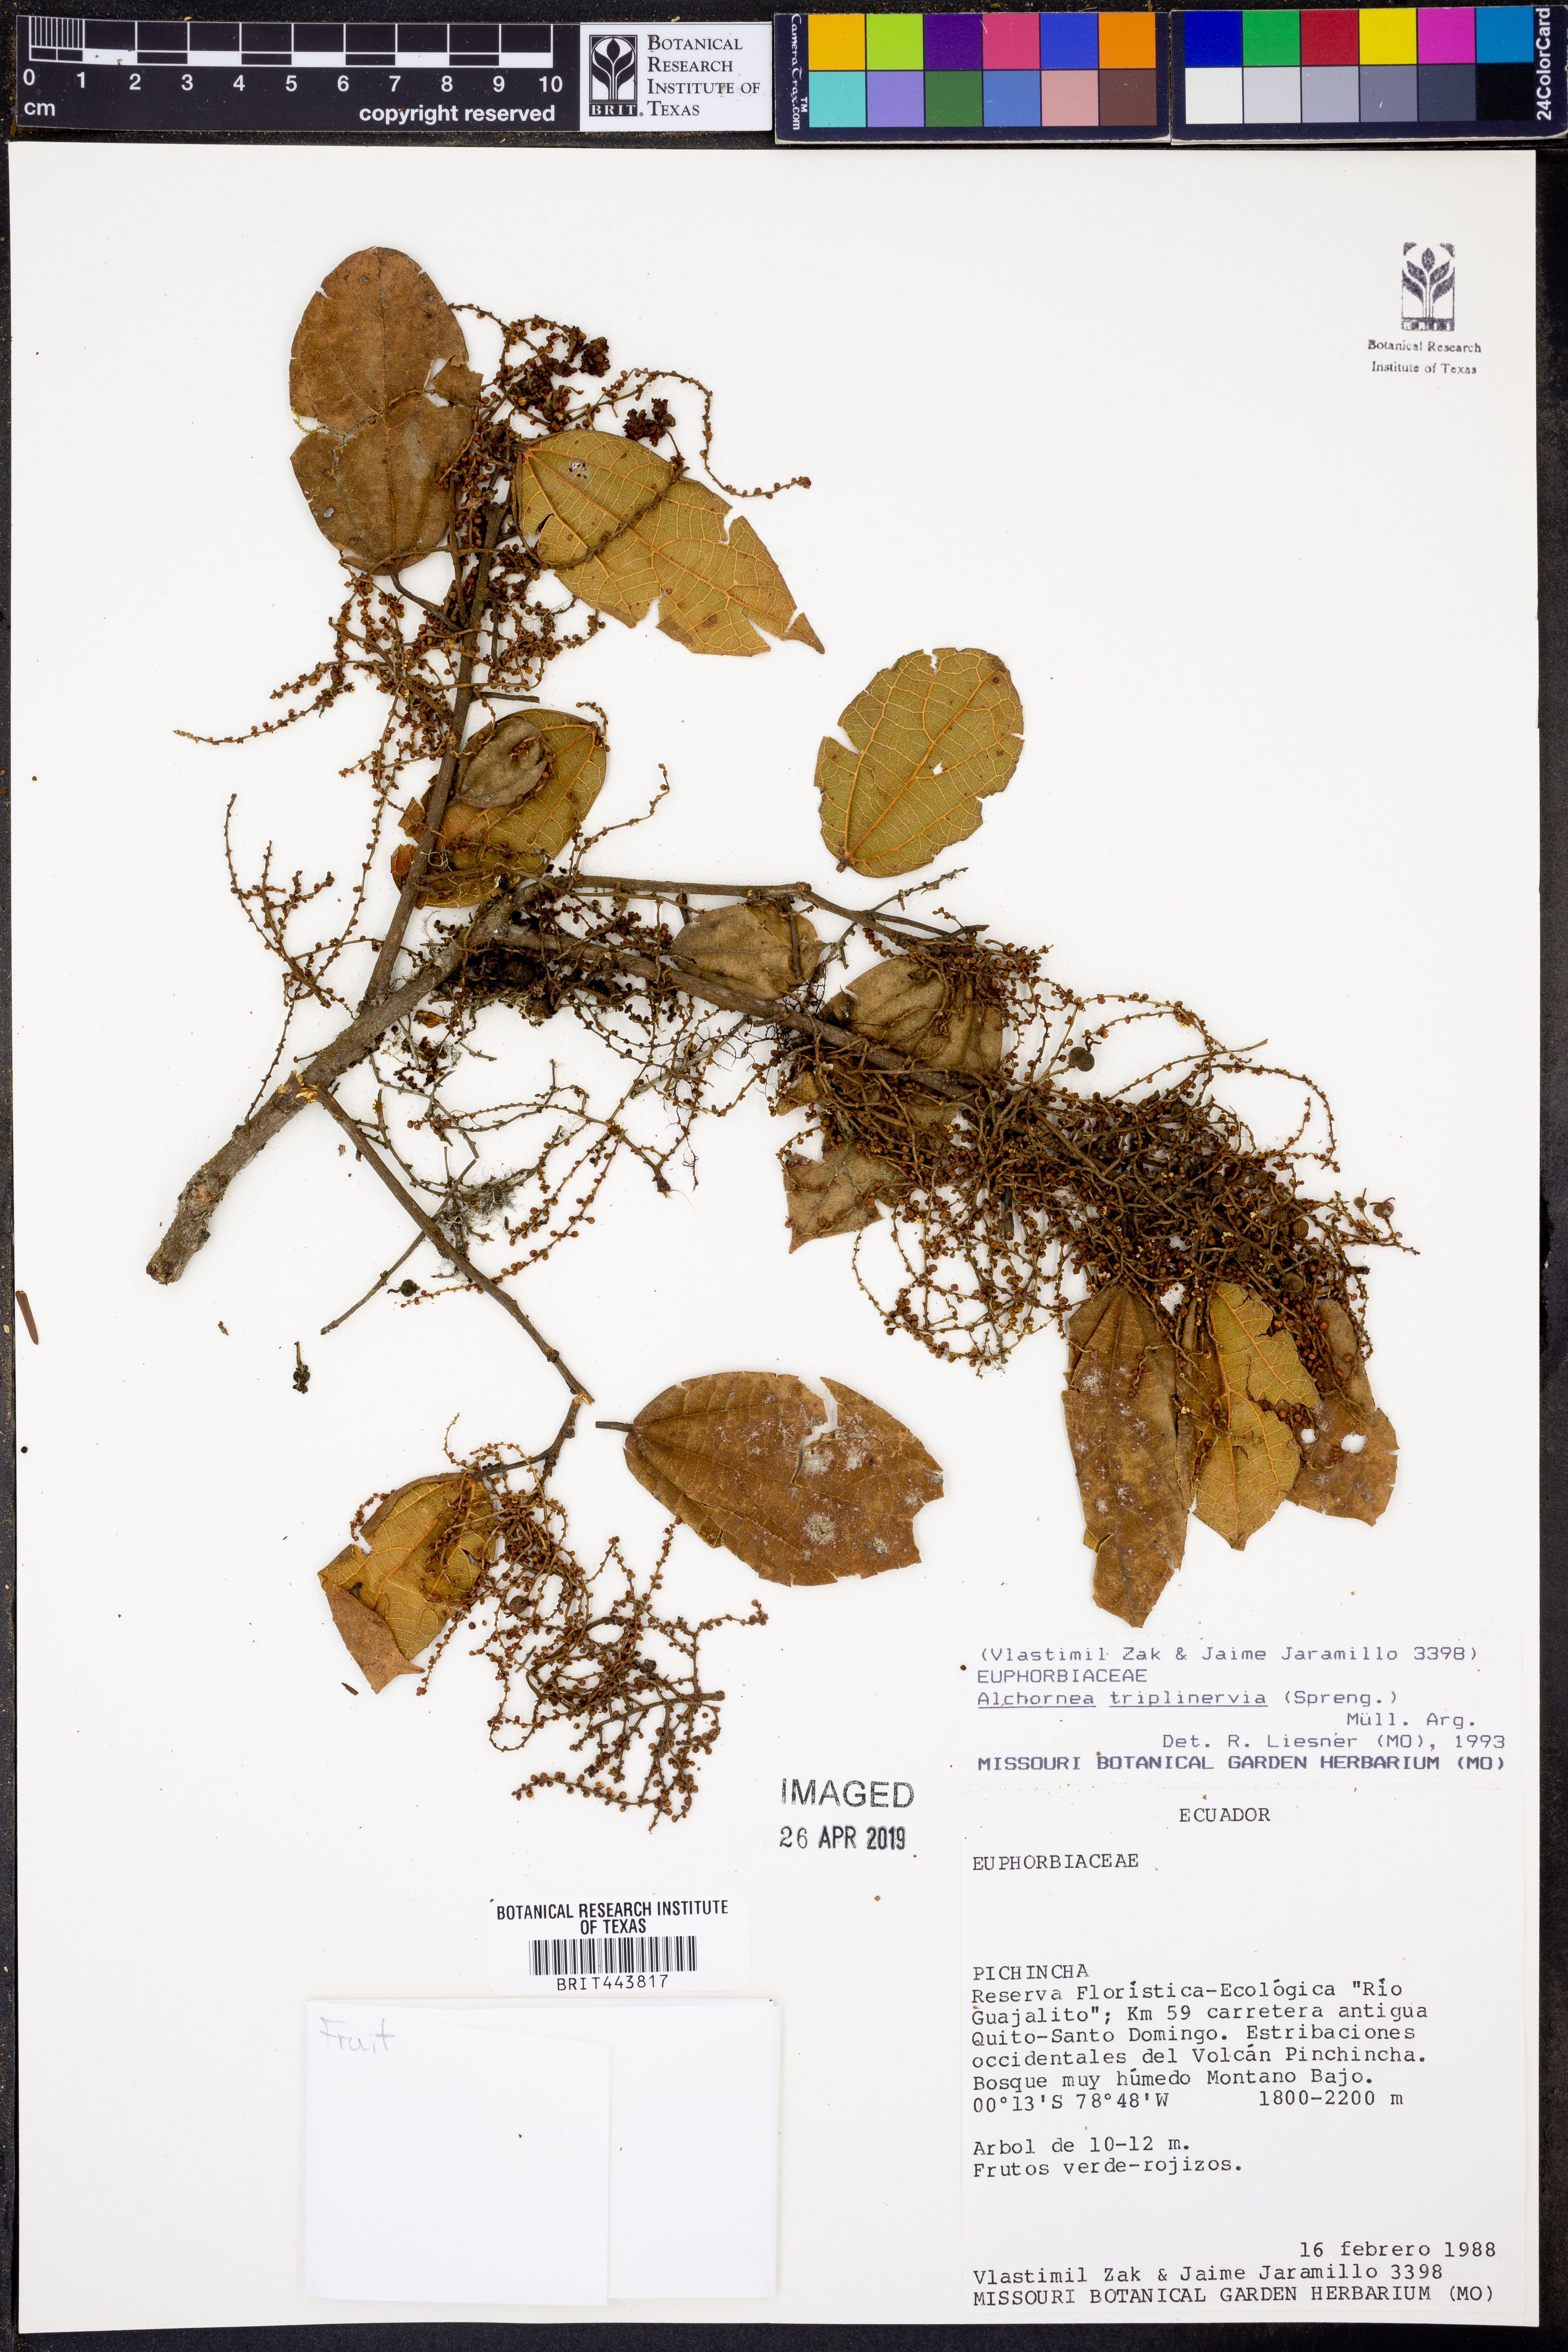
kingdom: Plantae
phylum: Tracheophyta
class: Magnoliopsida
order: Malpighiales
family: Euphorbiaceae
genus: Alchornea
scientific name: Alchornea triplinervia
